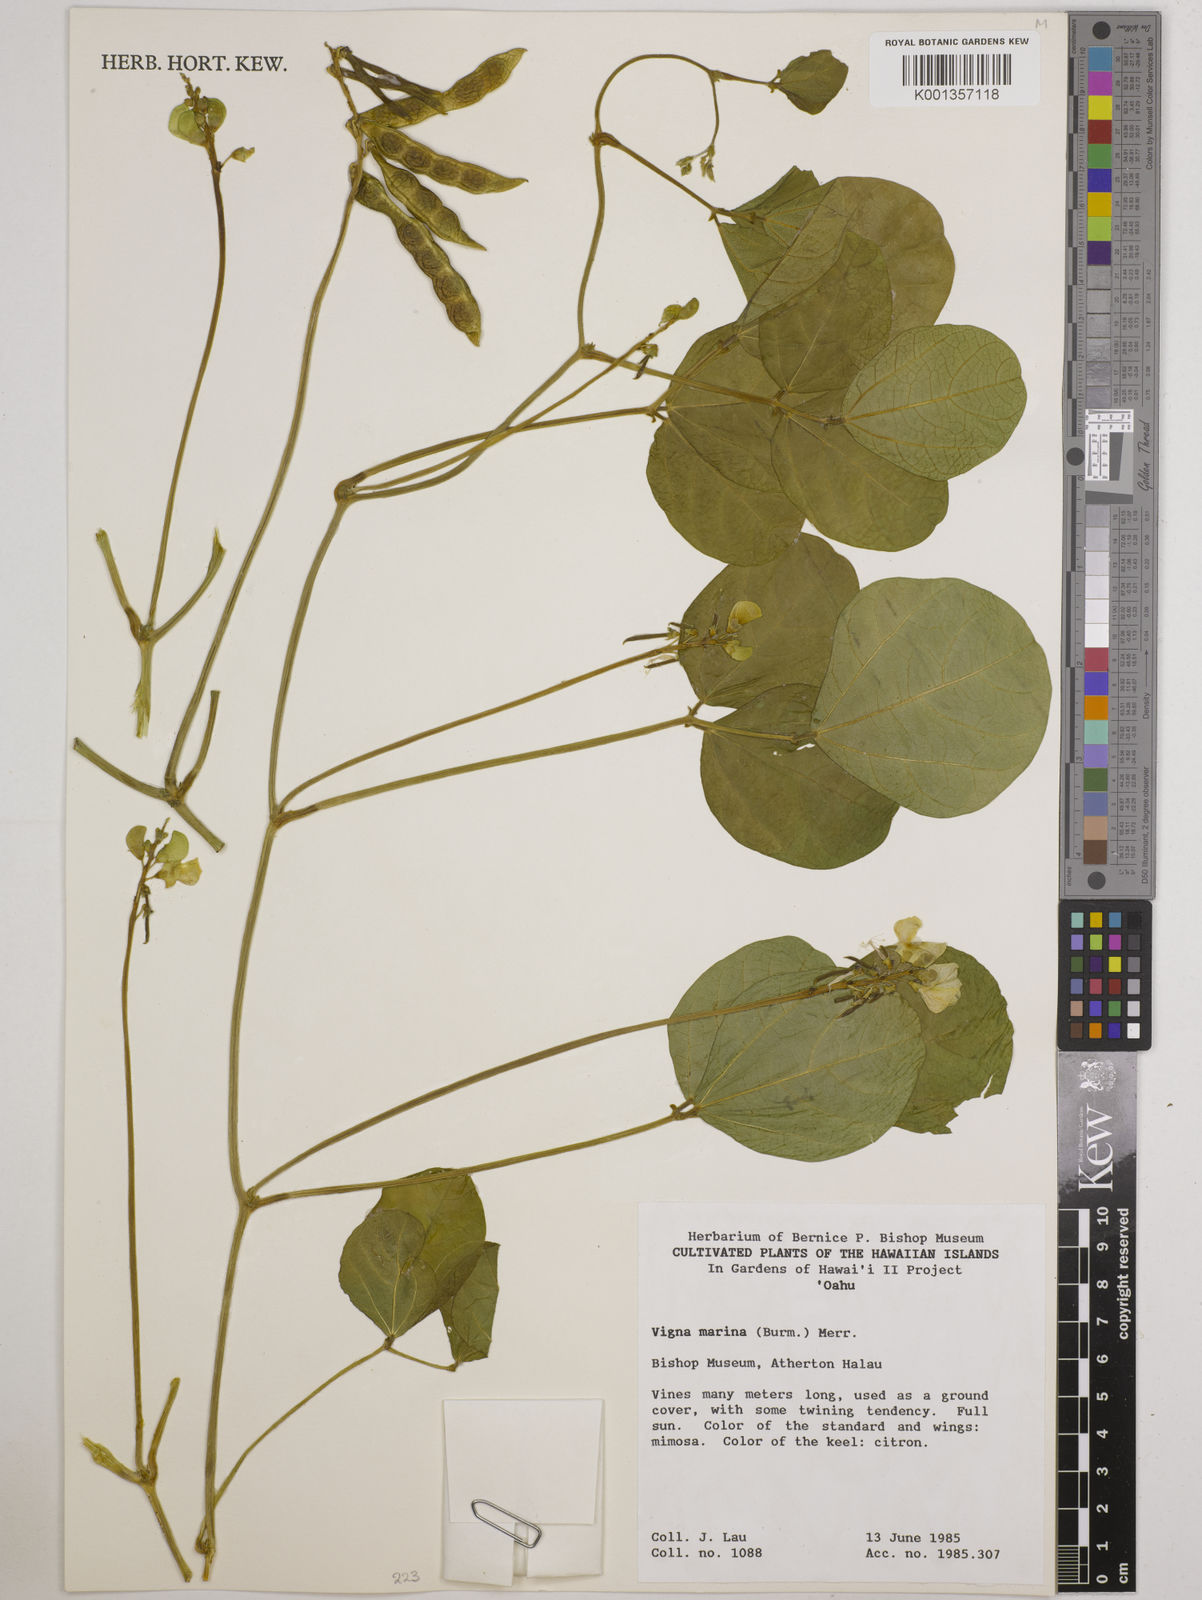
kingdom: Plantae
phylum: Tracheophyta
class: Magnoliopsida
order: Fabales
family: Fabaceae
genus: Vigna
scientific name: Vigna marina
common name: Dune-bean
